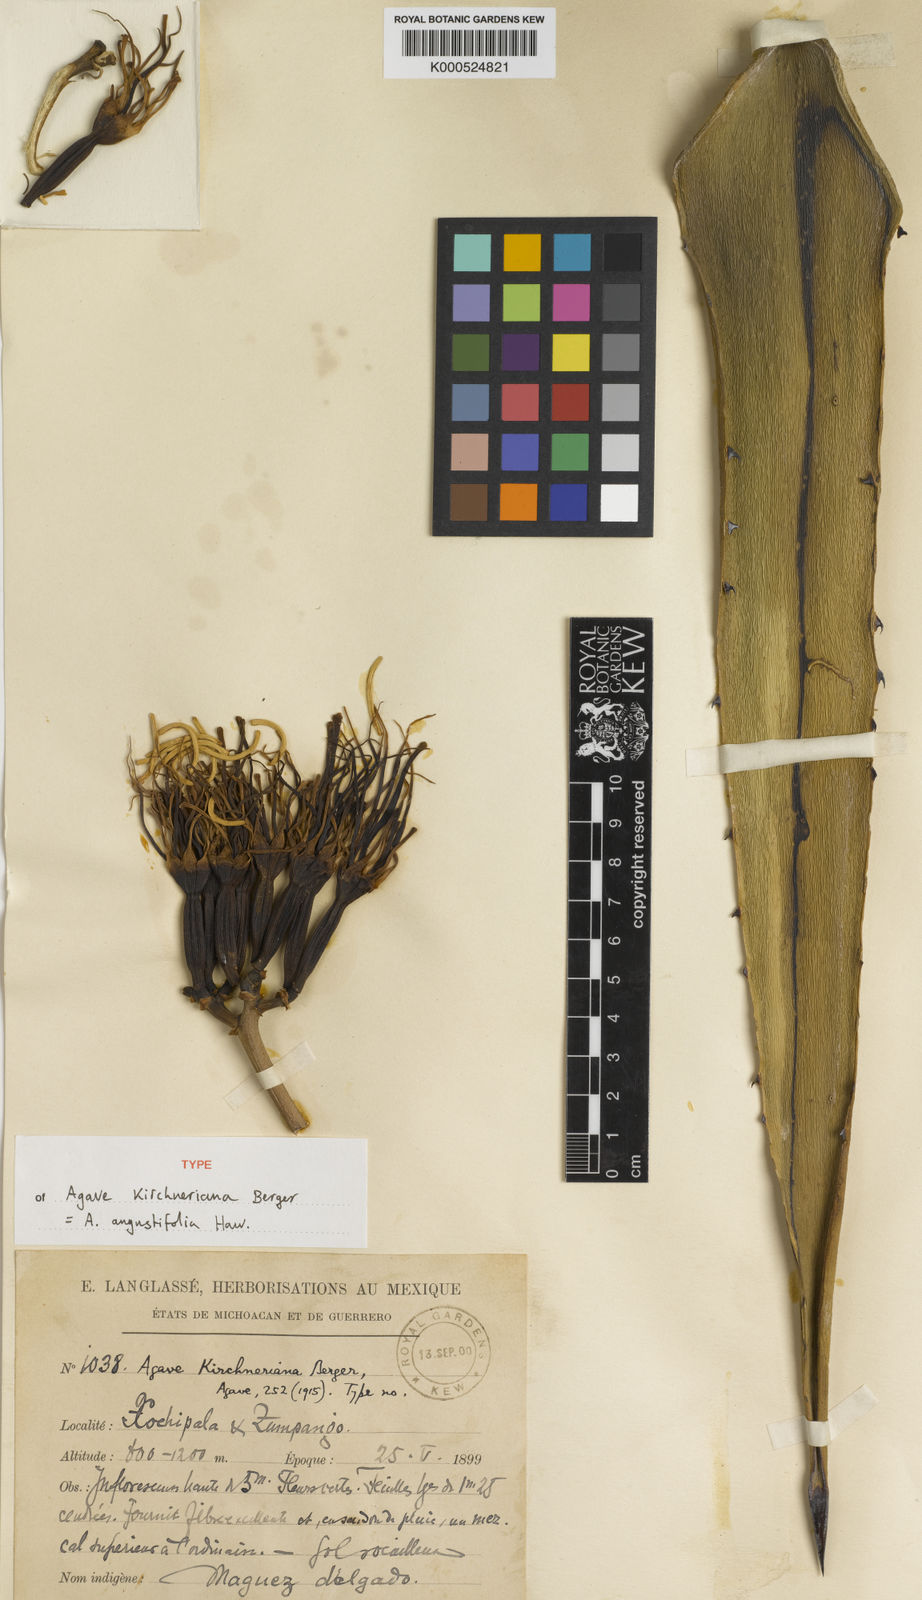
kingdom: Plantae
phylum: Tracheophyta
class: Liliopsida
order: Asparagales
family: Asparagaceae
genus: Agave
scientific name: Agave angustifolia
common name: Mescal agave
